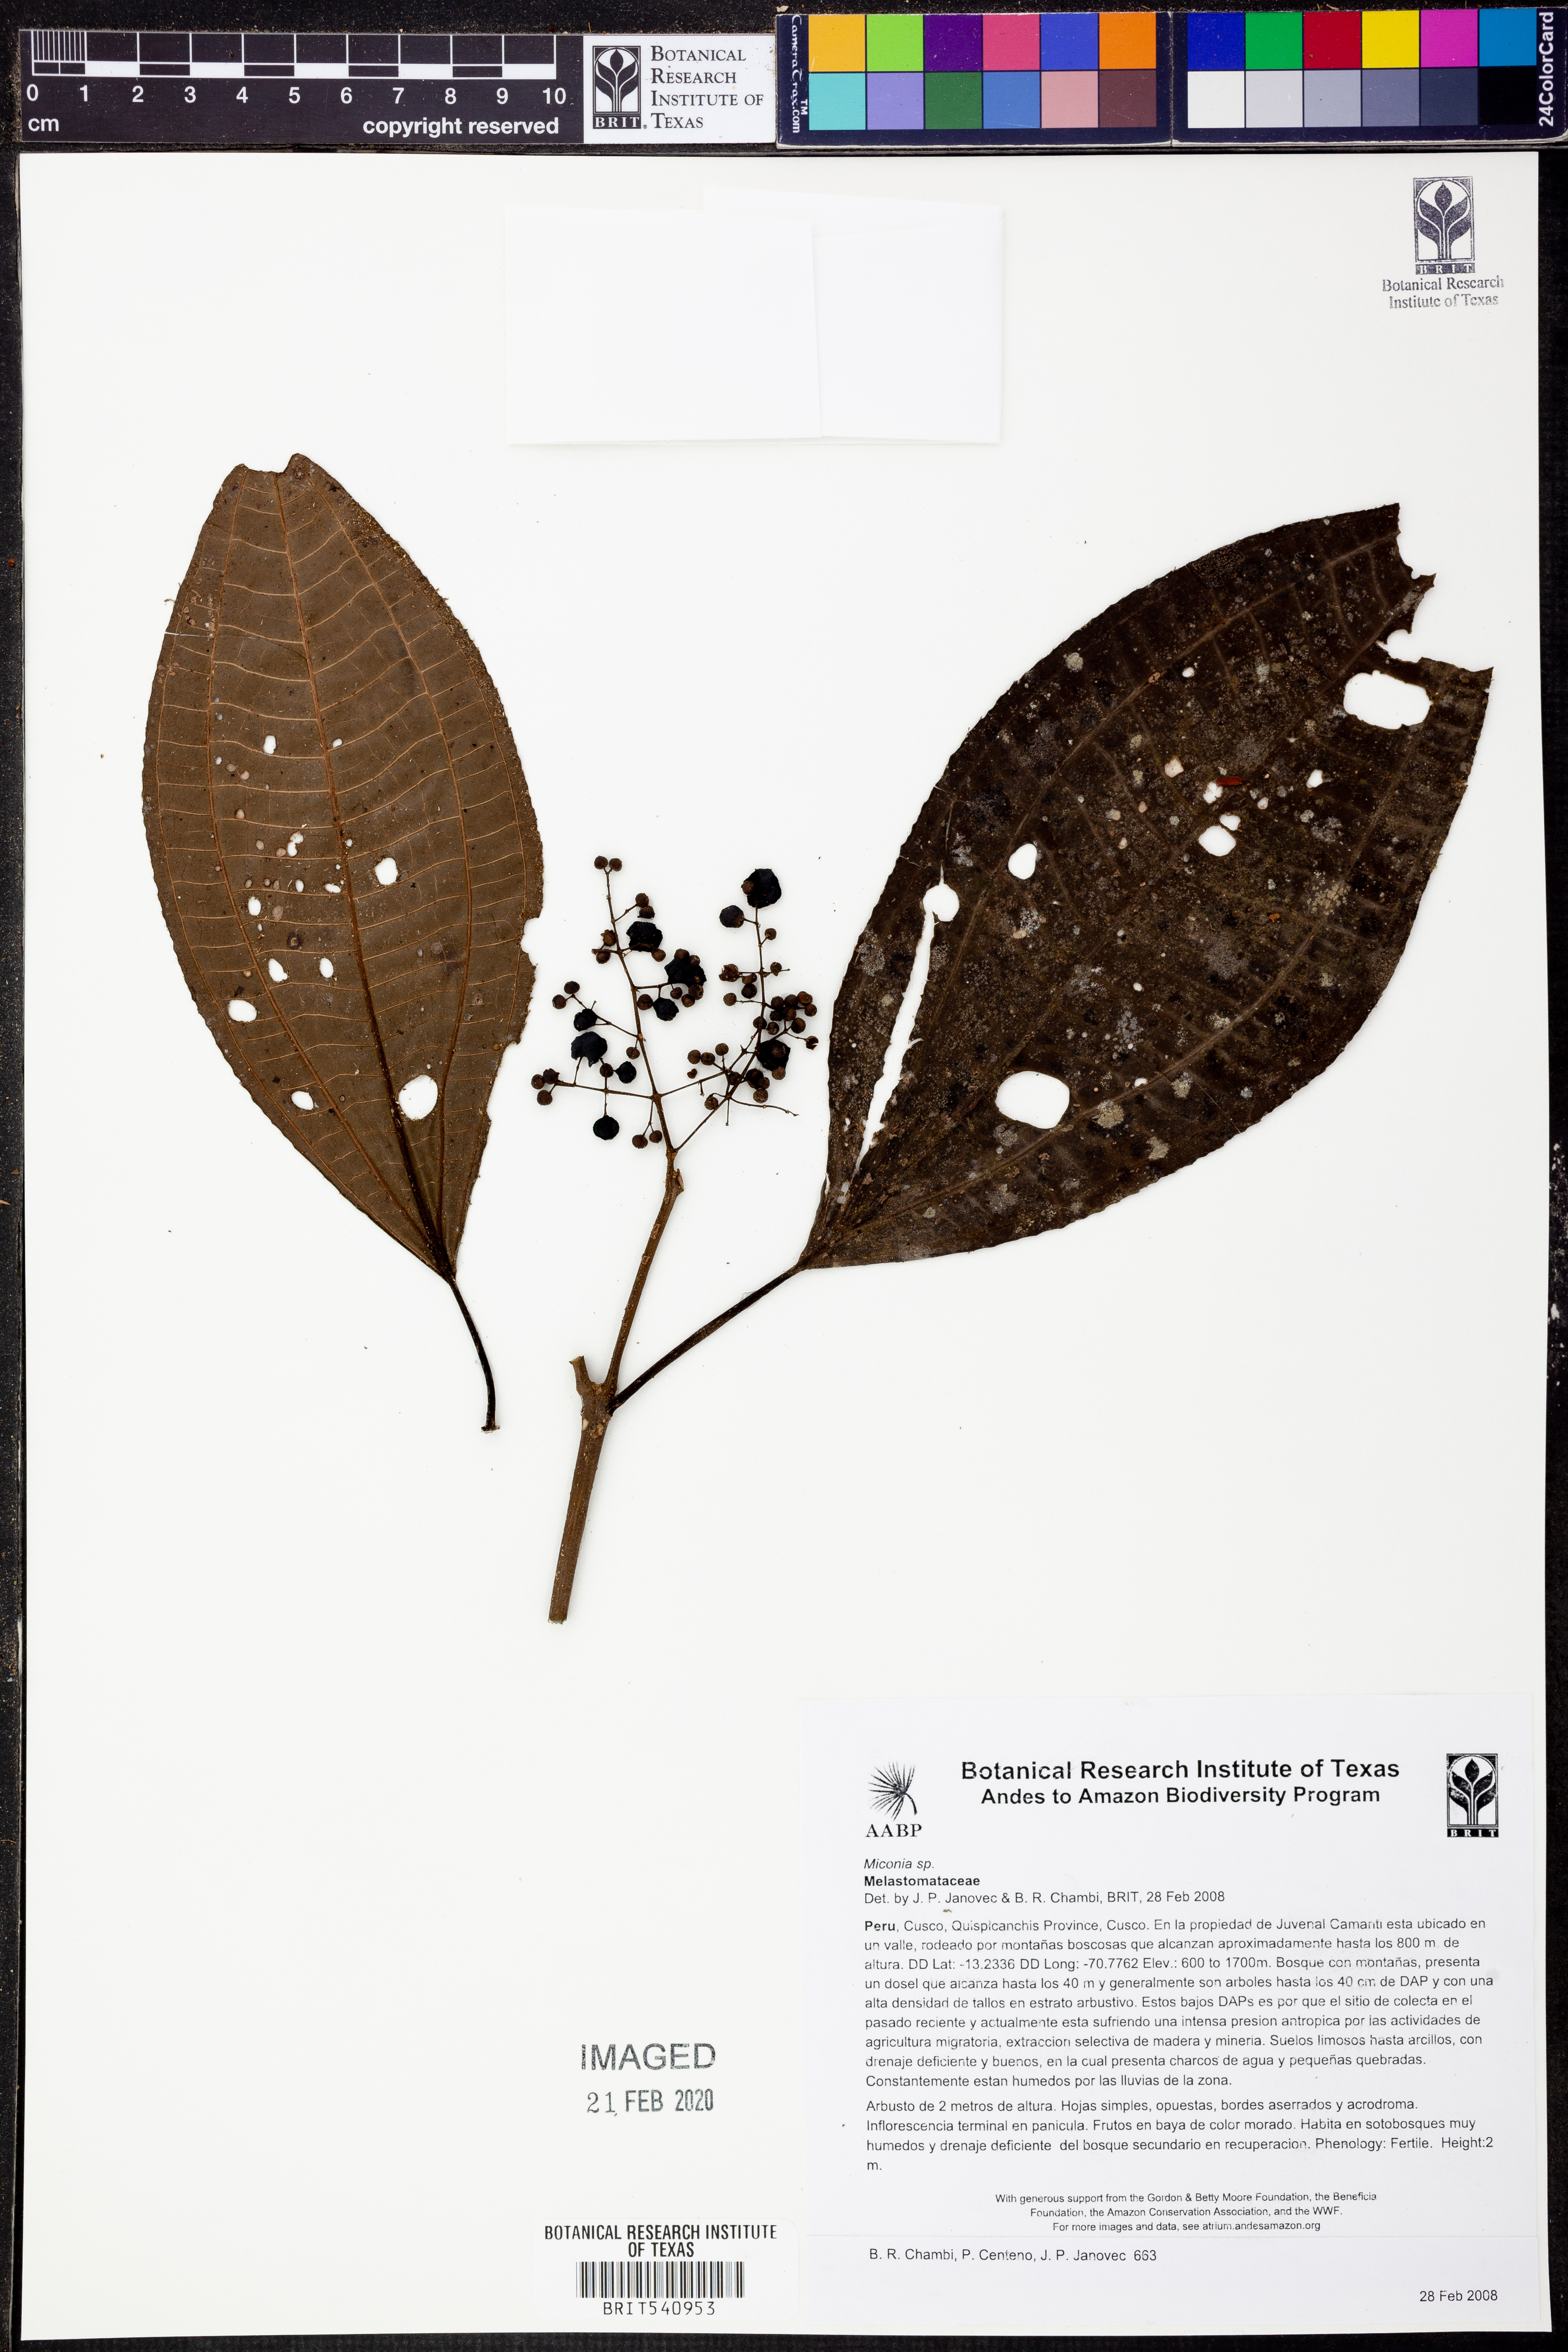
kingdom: Plantae
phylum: Tracheophyta
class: Magnoliopsida
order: Myrtales
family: Melastomataceae
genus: Miconia
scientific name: Miconia
